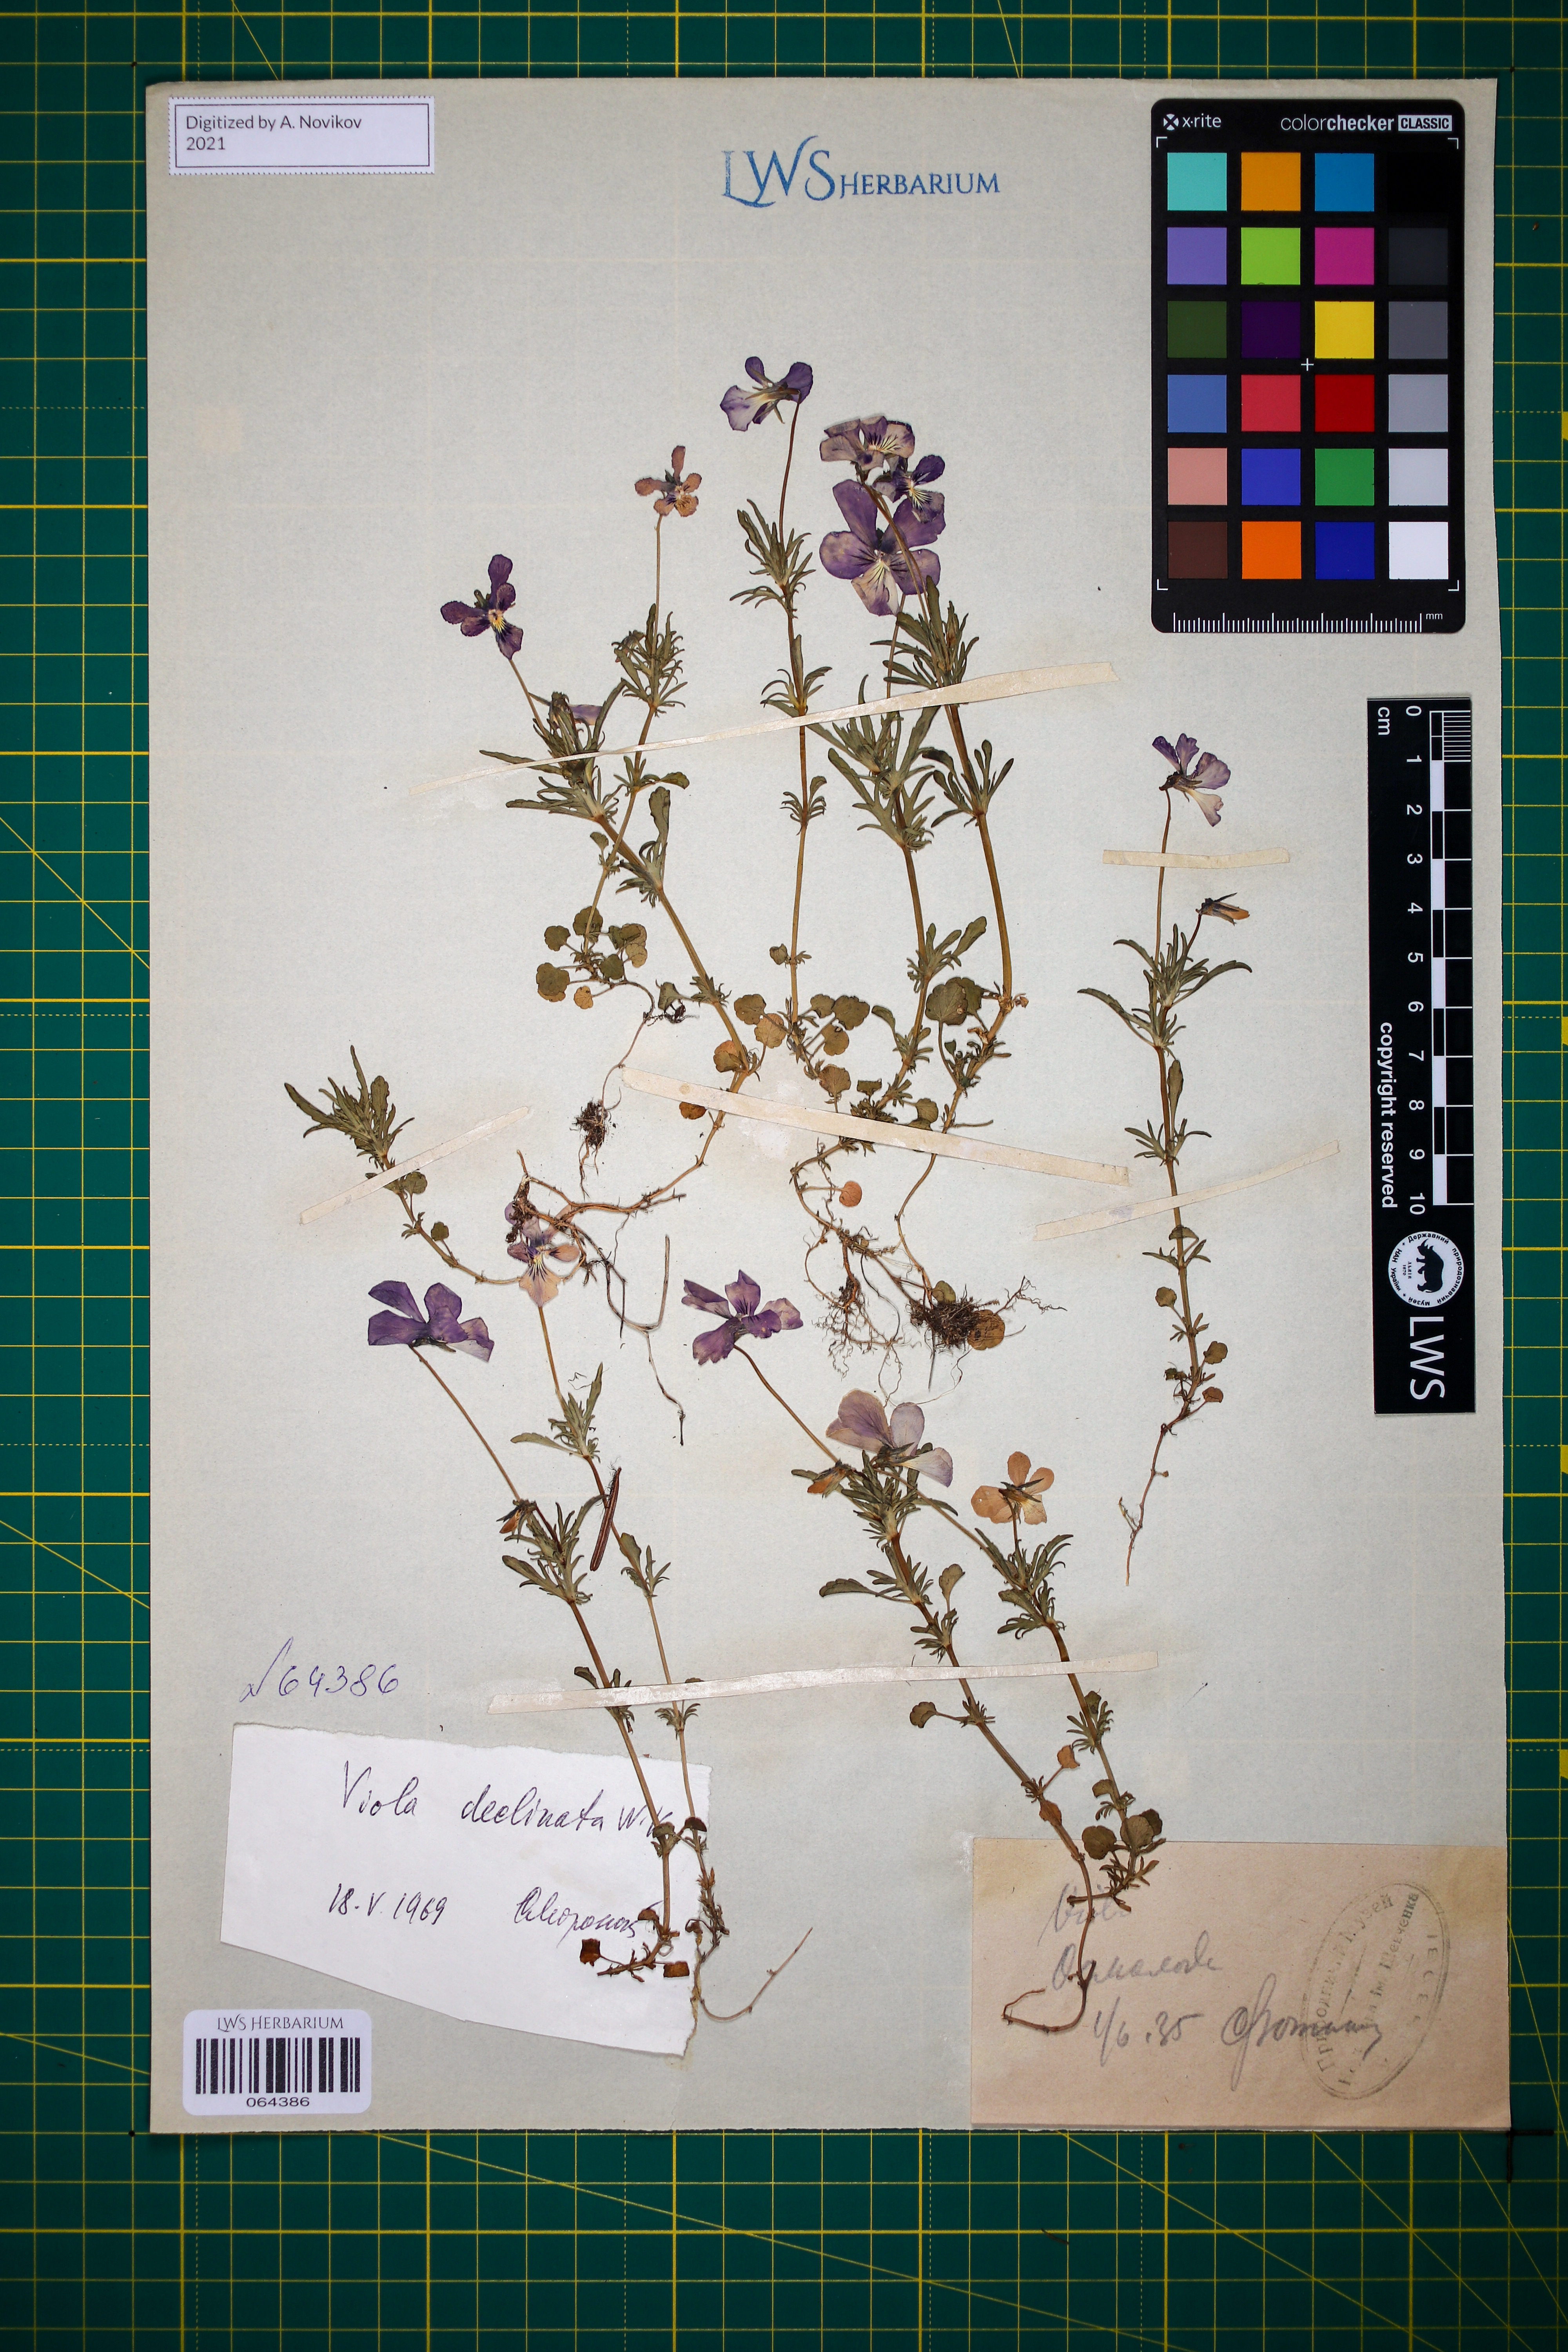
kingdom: Plantae
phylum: Tracheophyta
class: Magnoliopsida
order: Malpighiales
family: Violaceae
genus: Viola
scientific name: Viola declinata
